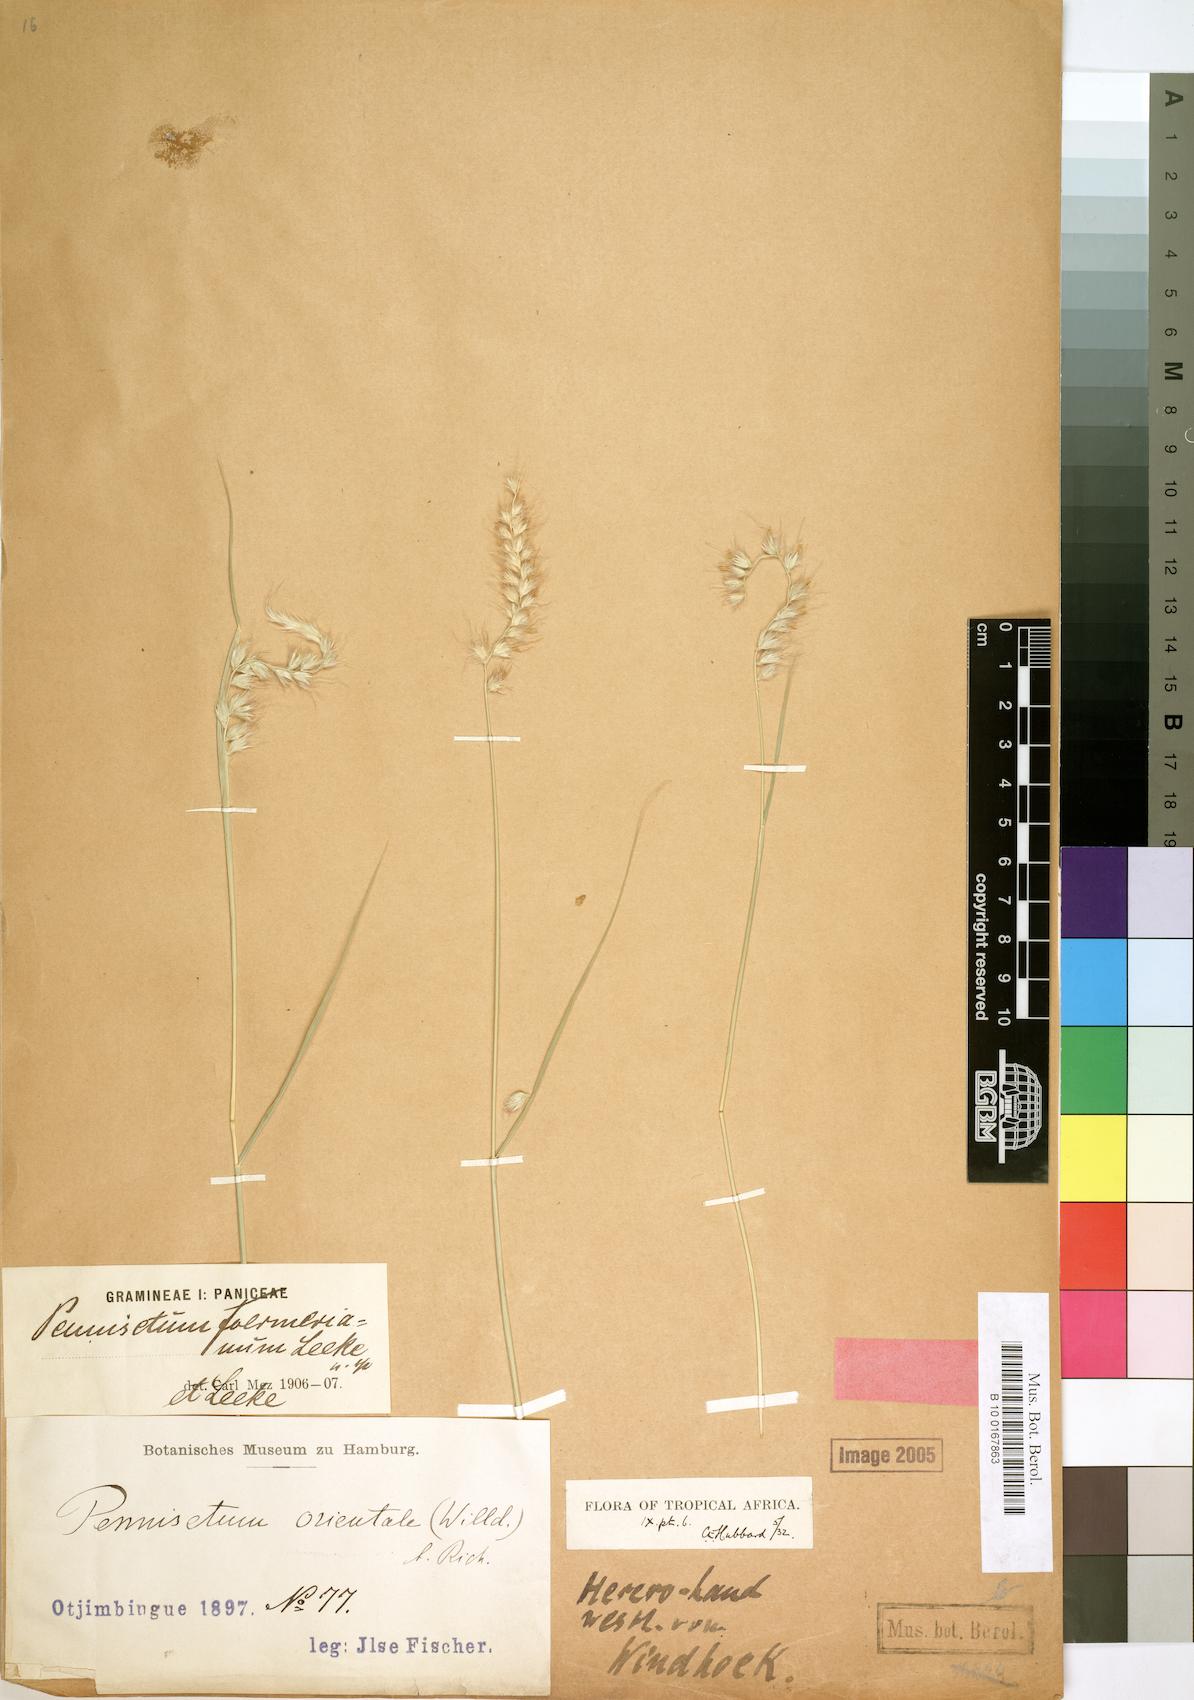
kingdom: Plantae
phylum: Tracheophyta
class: Liliopsida
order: Poales
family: Poaceae
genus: Cenchrus
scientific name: Cenchrus foermerianus
